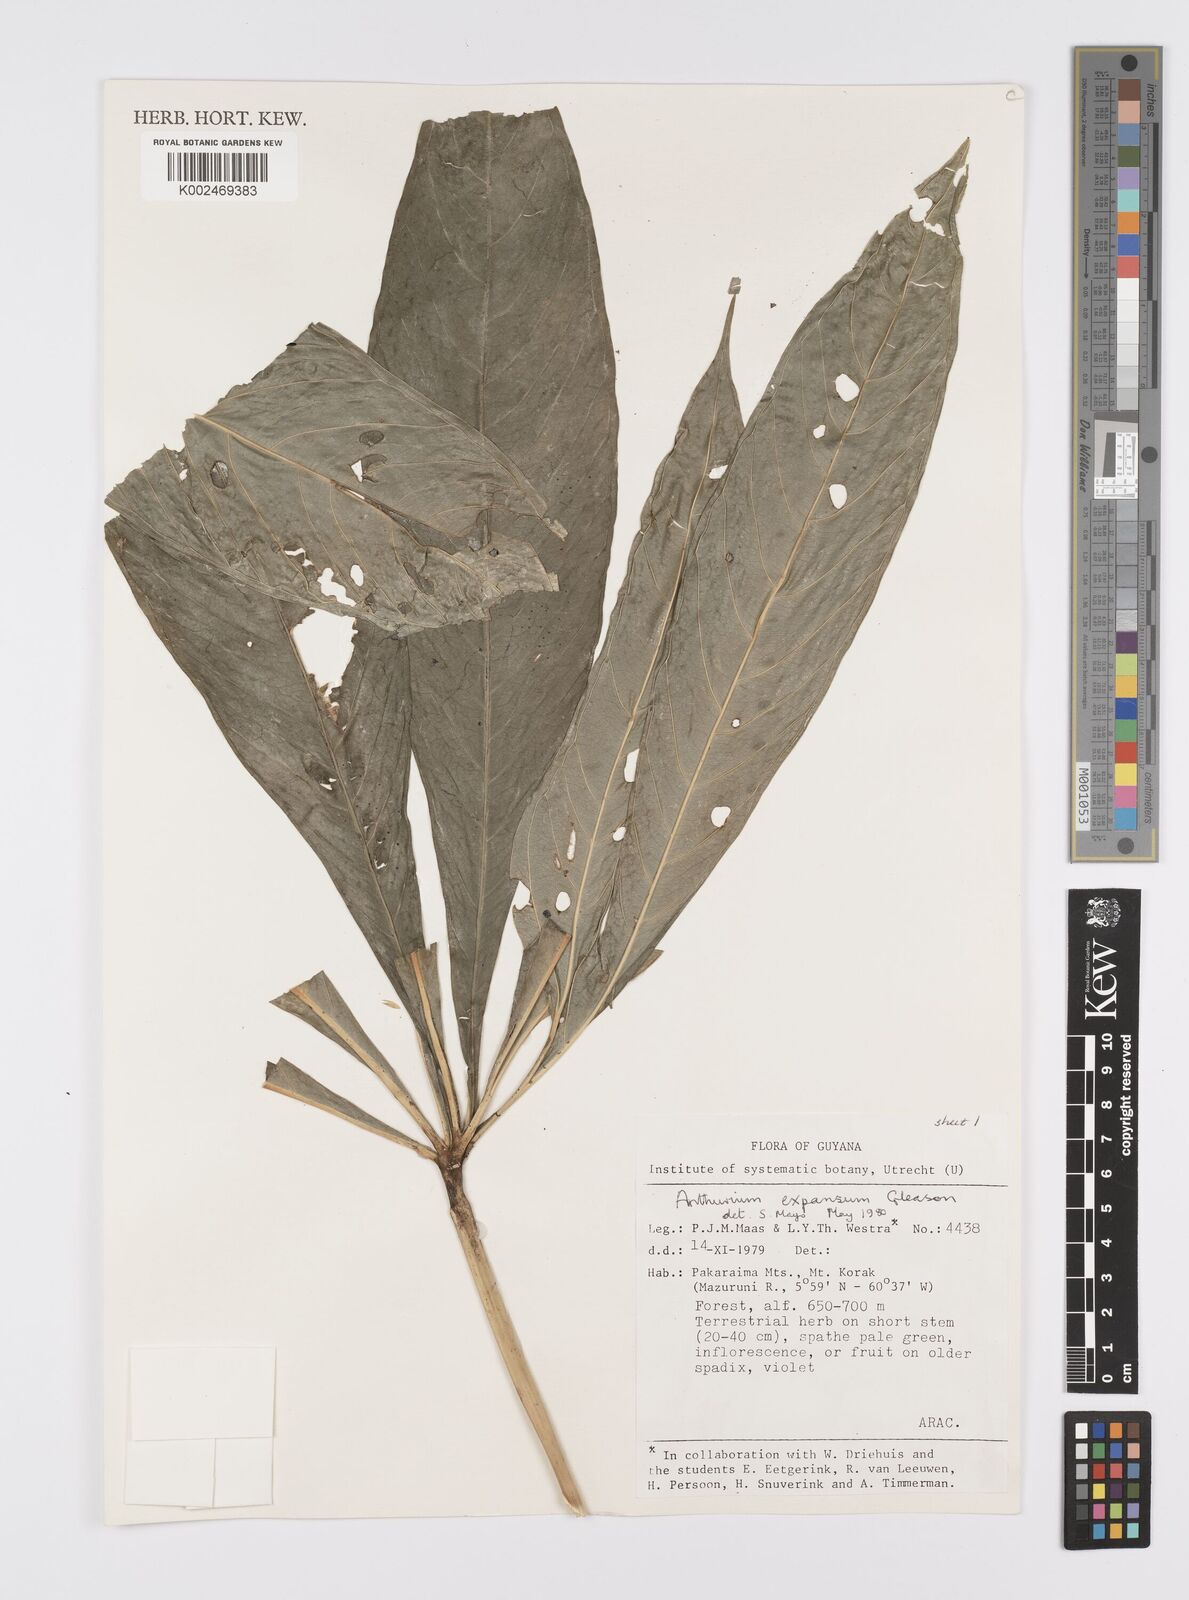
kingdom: Plantae
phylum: Tracheophyta
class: Liliopsida
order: Alismatales
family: Araceae
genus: Anthurium
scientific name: Anthurium expansum
